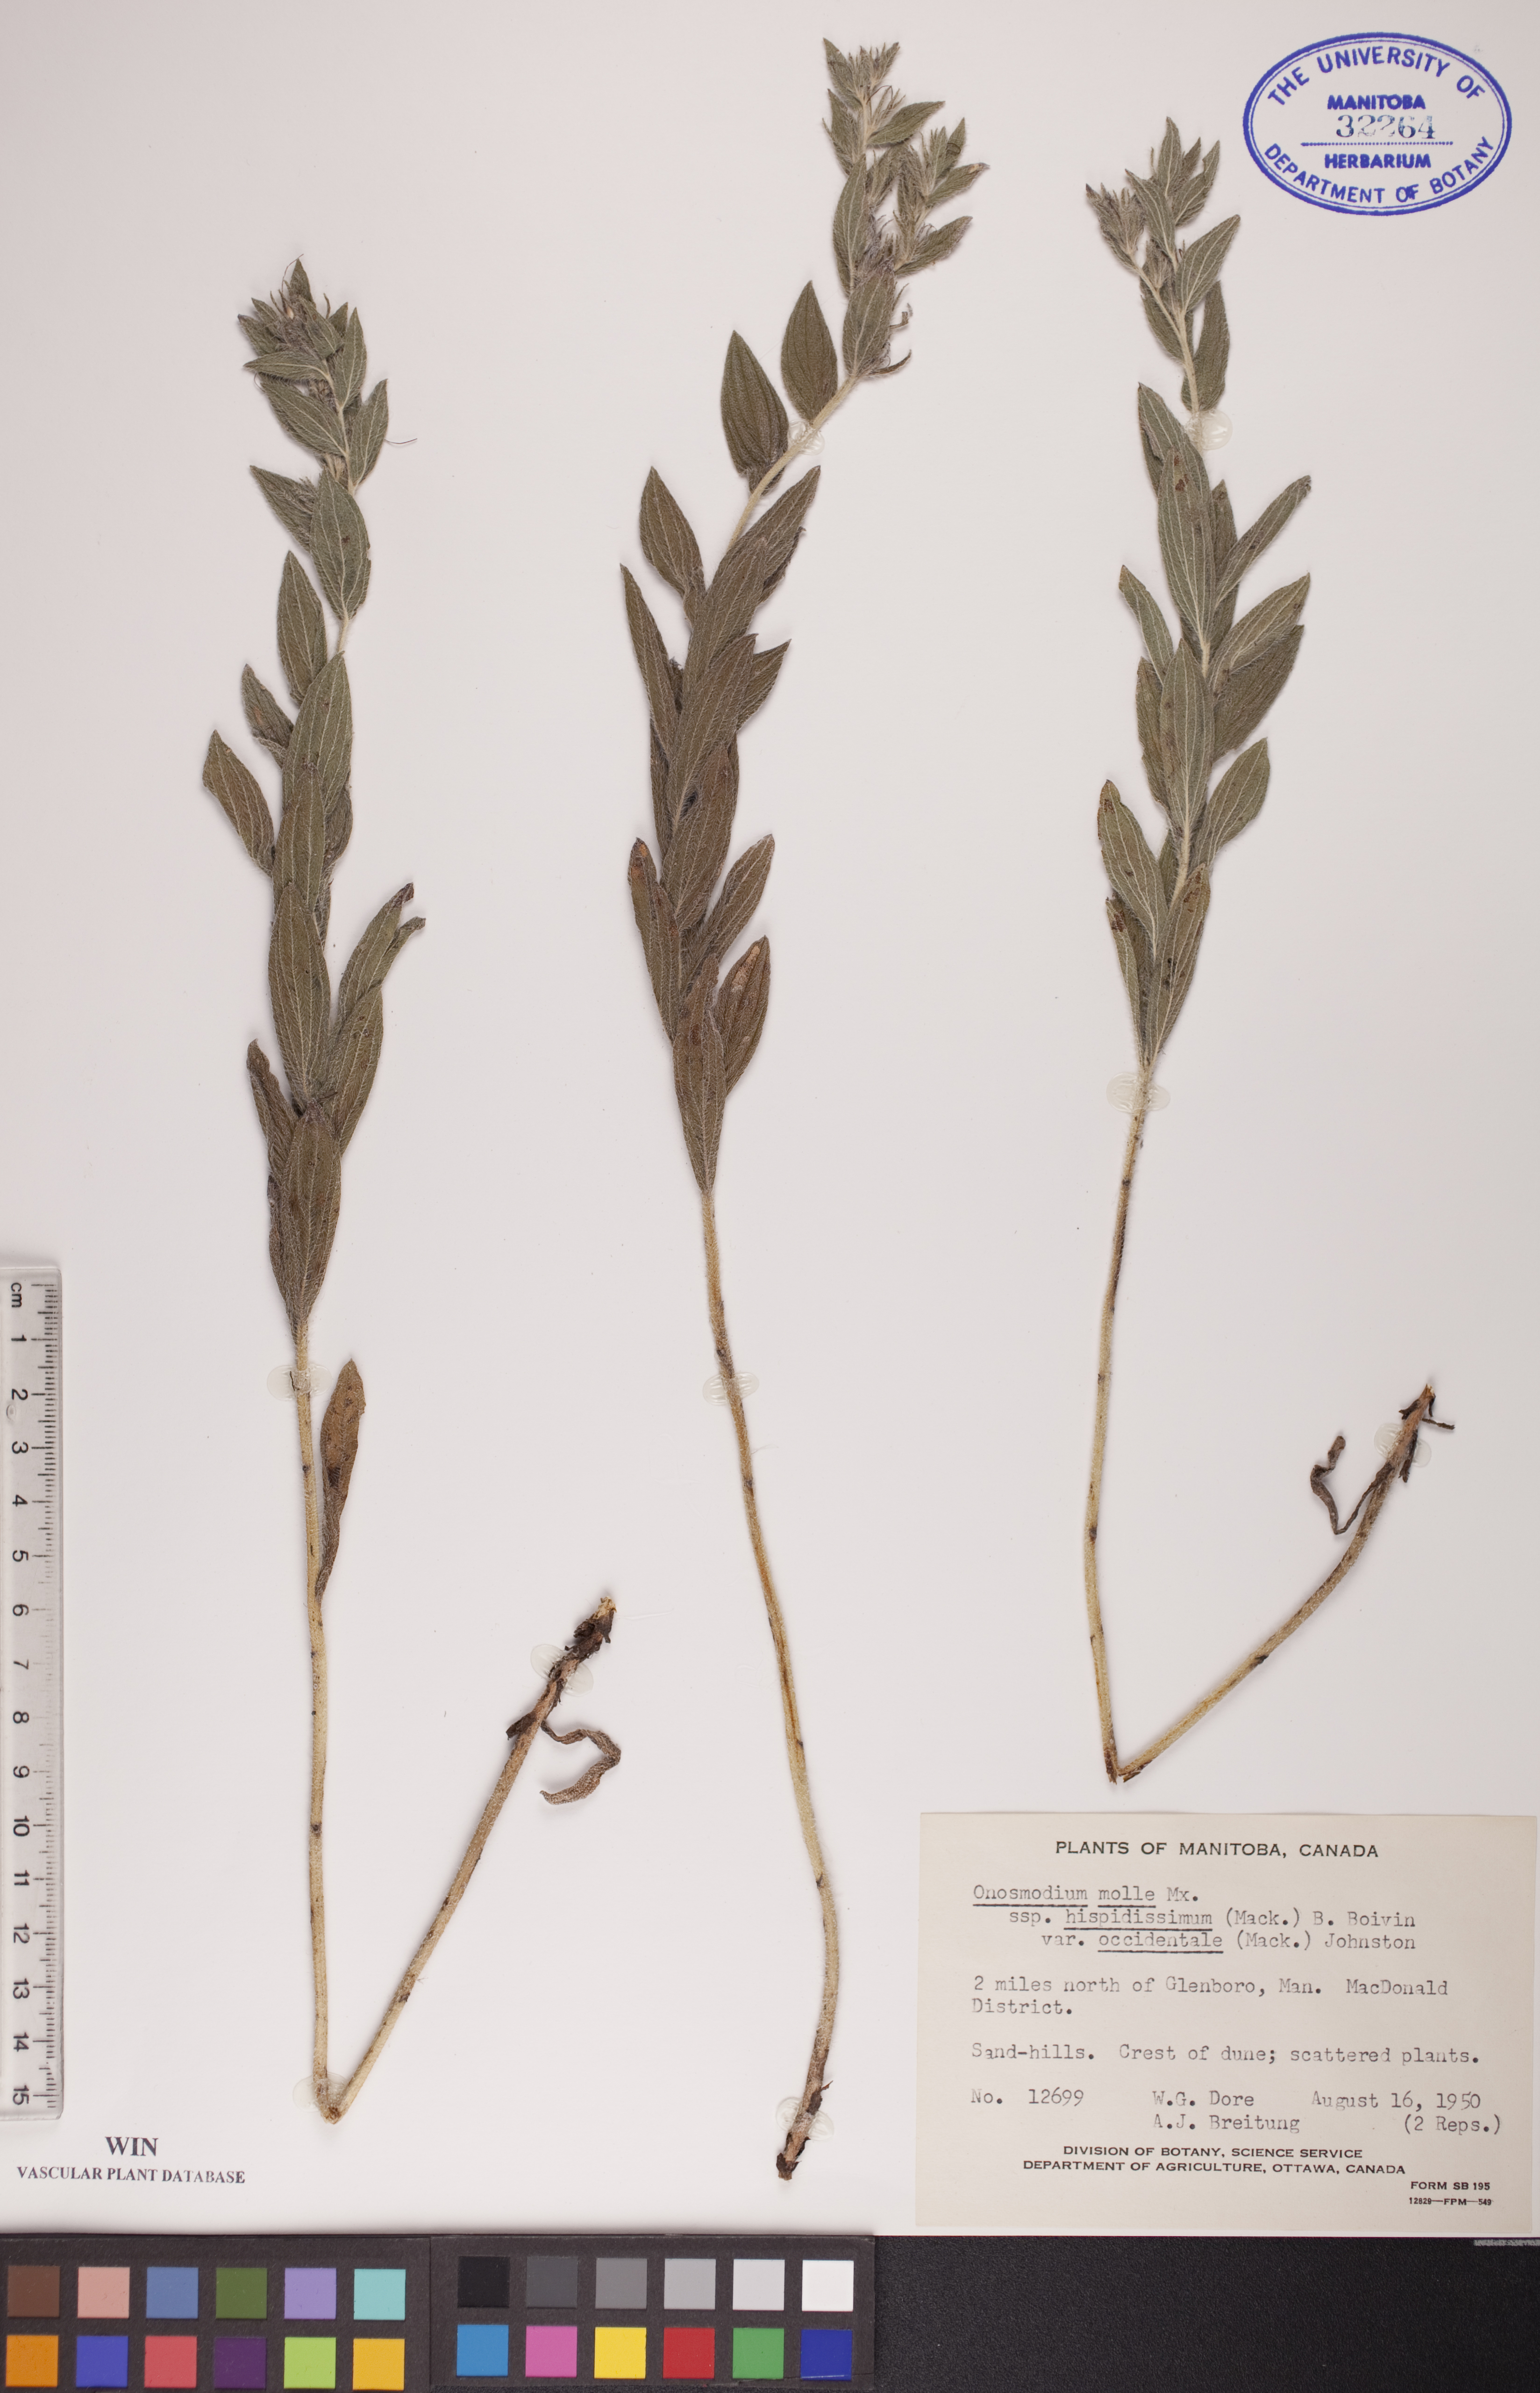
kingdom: Plantae
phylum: Tracheophyta
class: Magnoliopsida
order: Boraginales
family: Boraginaceae
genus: Lithospermum
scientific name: Lithospermum occidentale
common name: Western false gromwell
